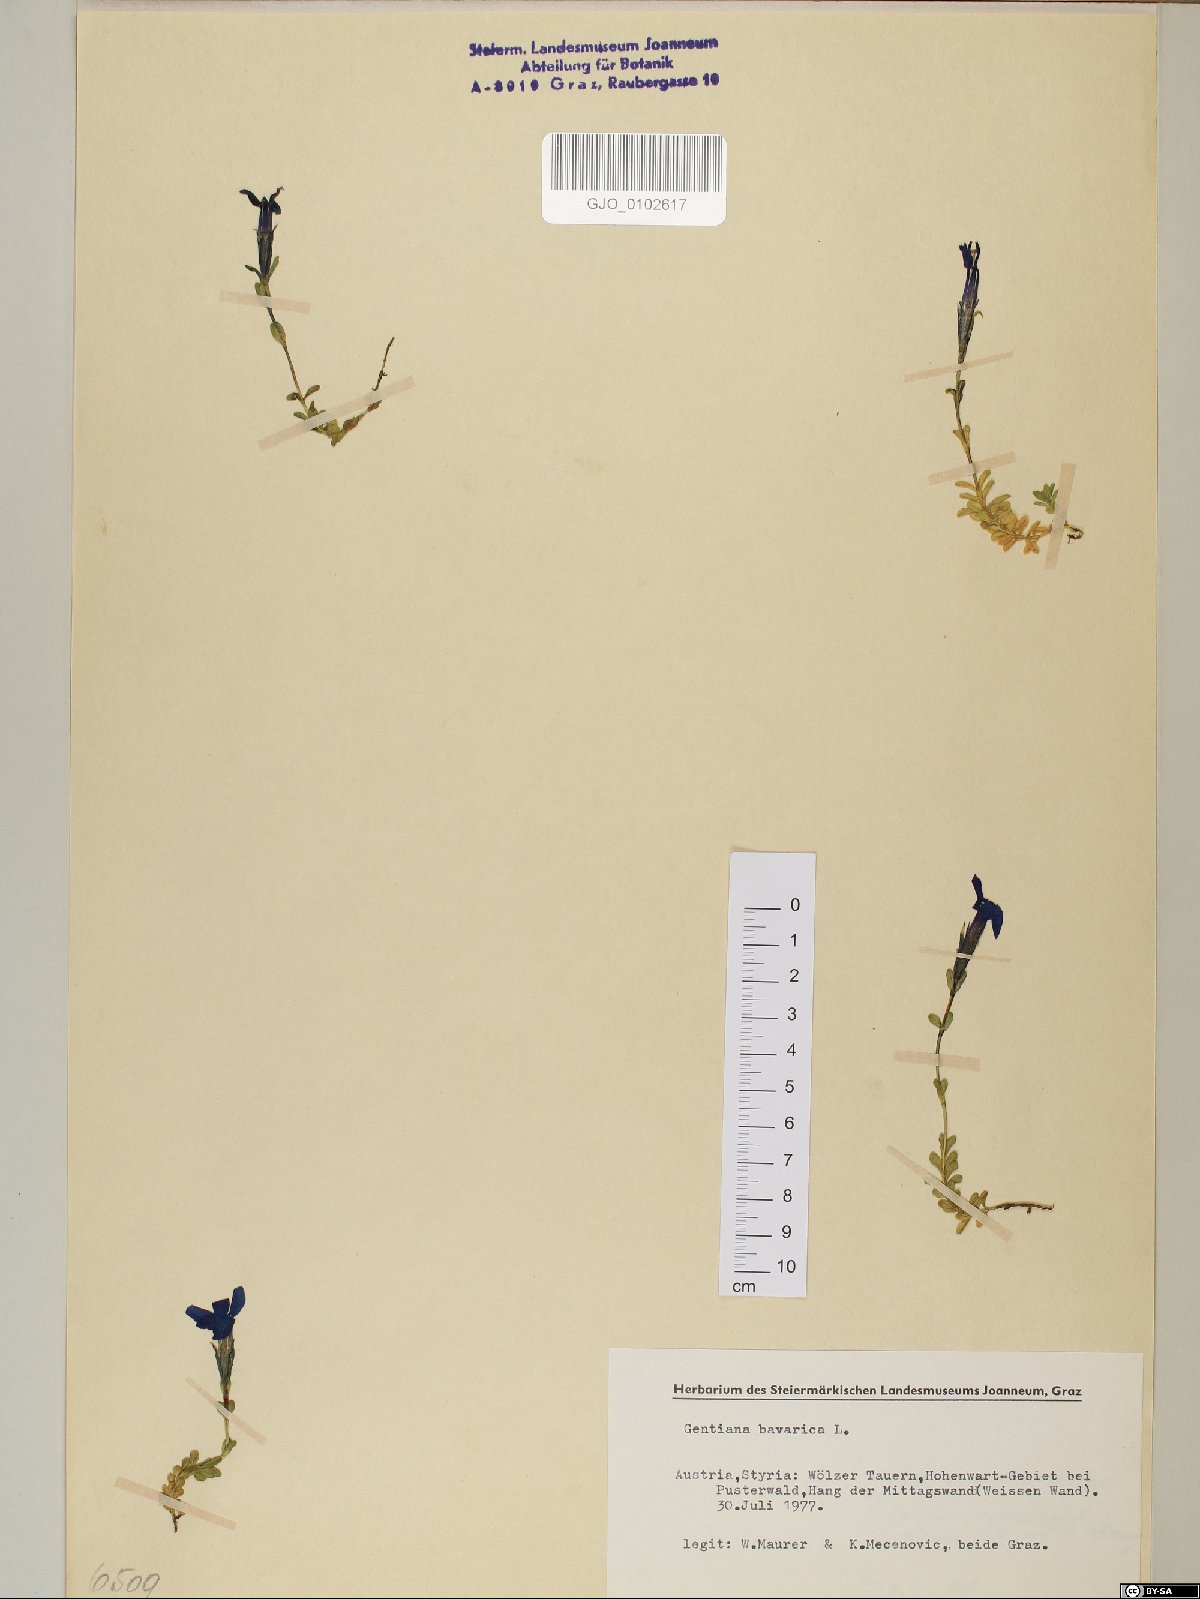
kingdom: Plantae
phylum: Tracheophyta
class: Magnoliopsida
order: Gentianales
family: Gentianaceae
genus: Gentiana
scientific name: Gentiana bavarica
